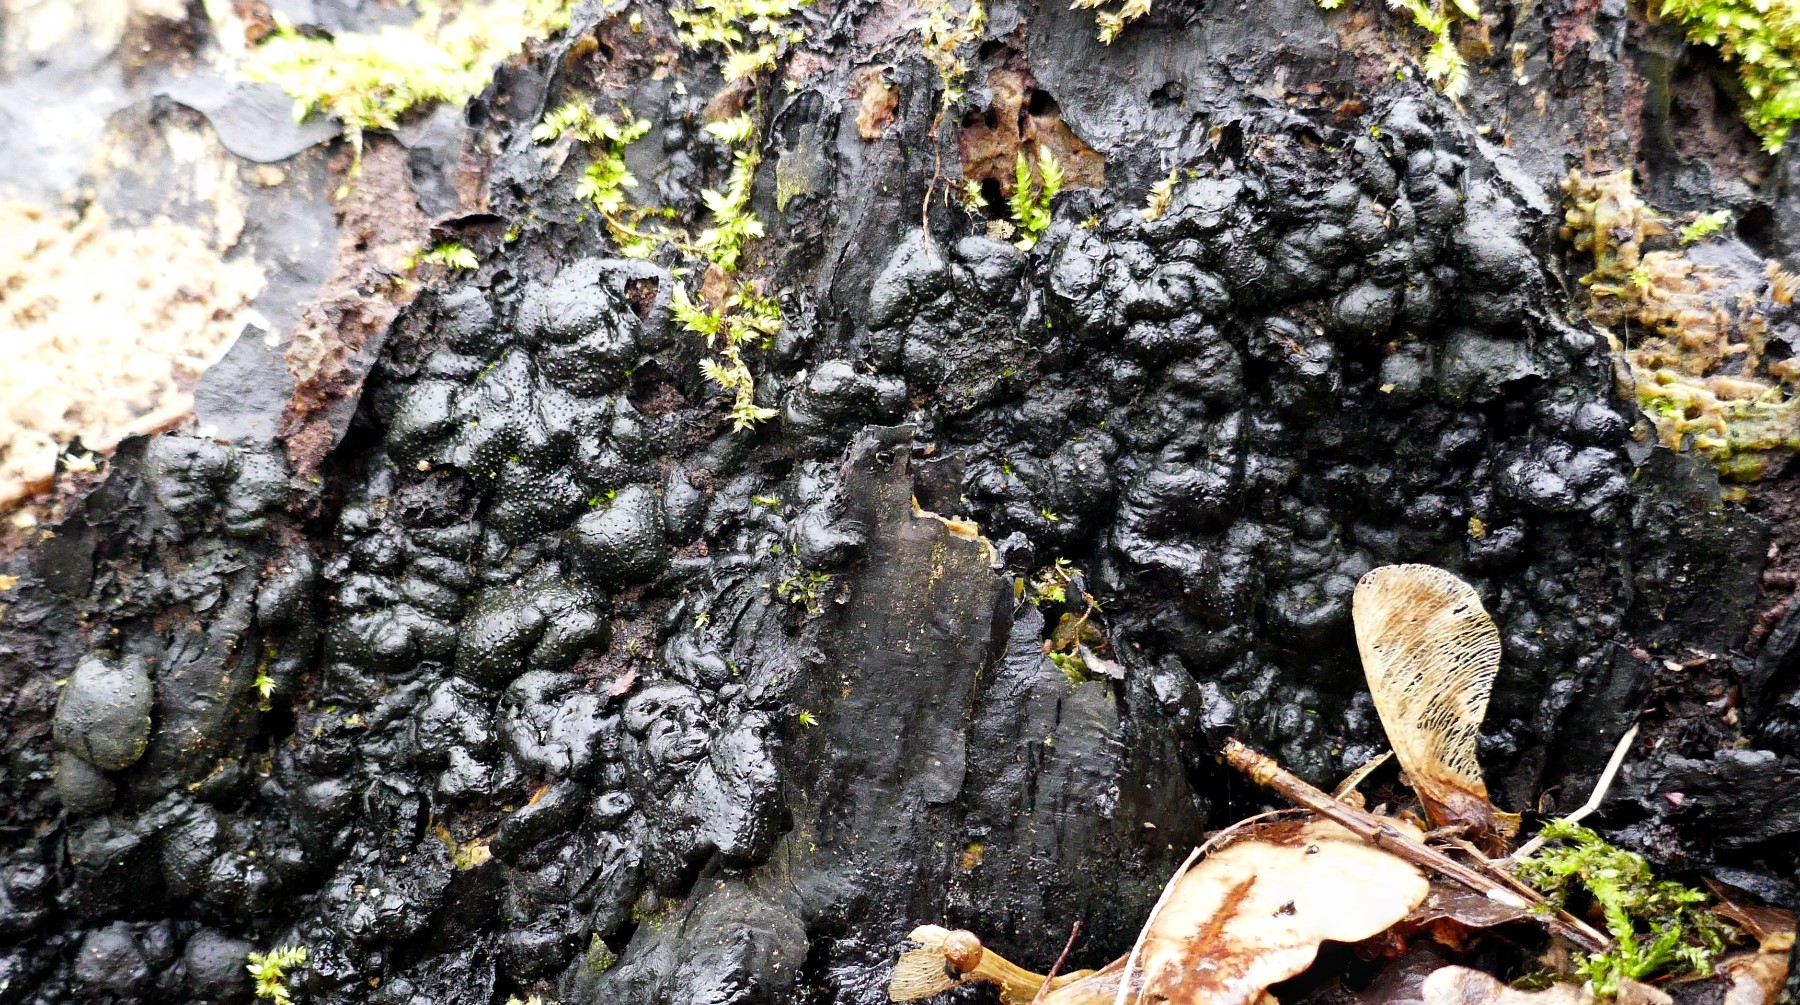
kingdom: Fungi
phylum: Ascomycota
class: Sordariomycetes
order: Xylariales
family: Xylariaceae
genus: Kretzschmaria
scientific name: Kretzschmaria deusta
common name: stor kulsvamp
